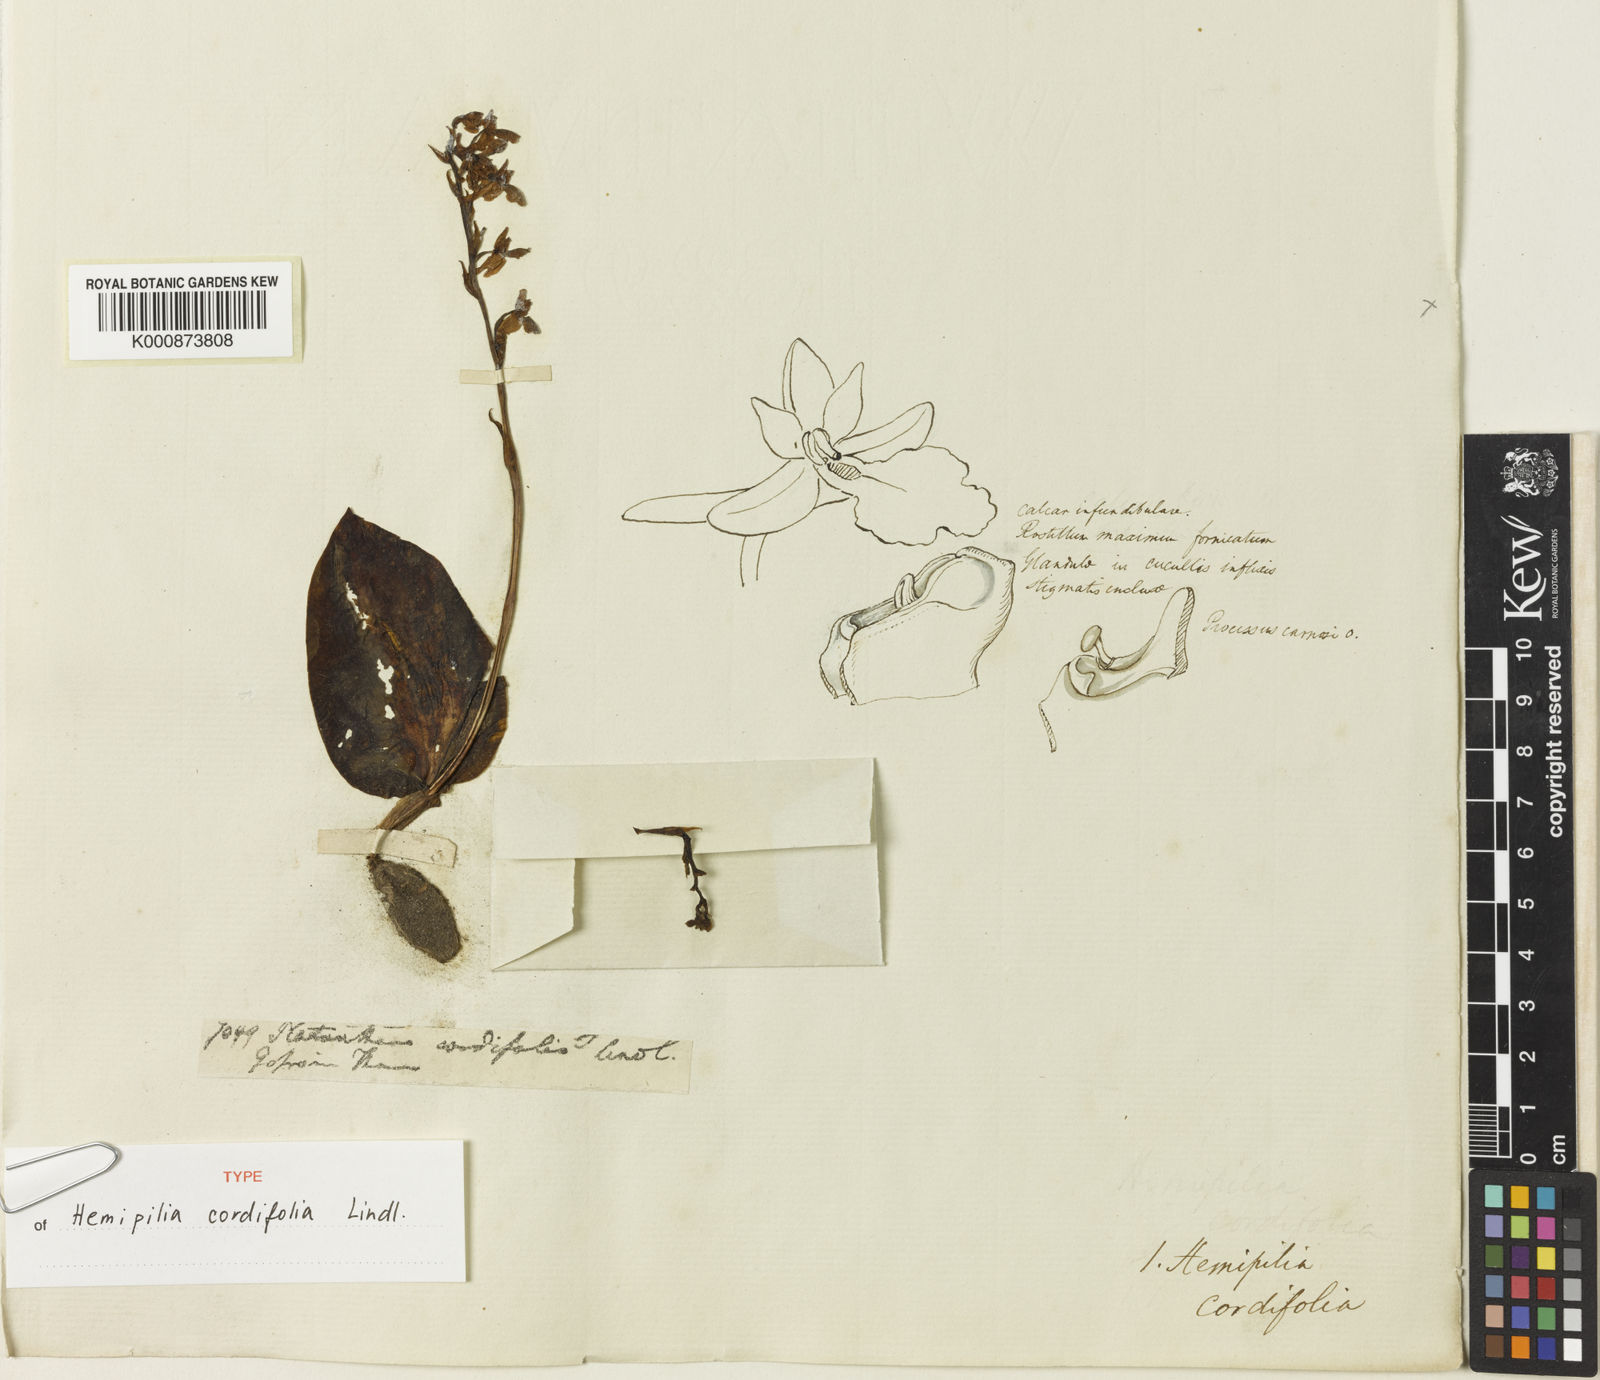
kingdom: Plantae
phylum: Tracheophyta
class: Liliopsida
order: Asparagales
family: Orchidaceae
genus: Hemipilia
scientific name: Hemipilia cordifolia
